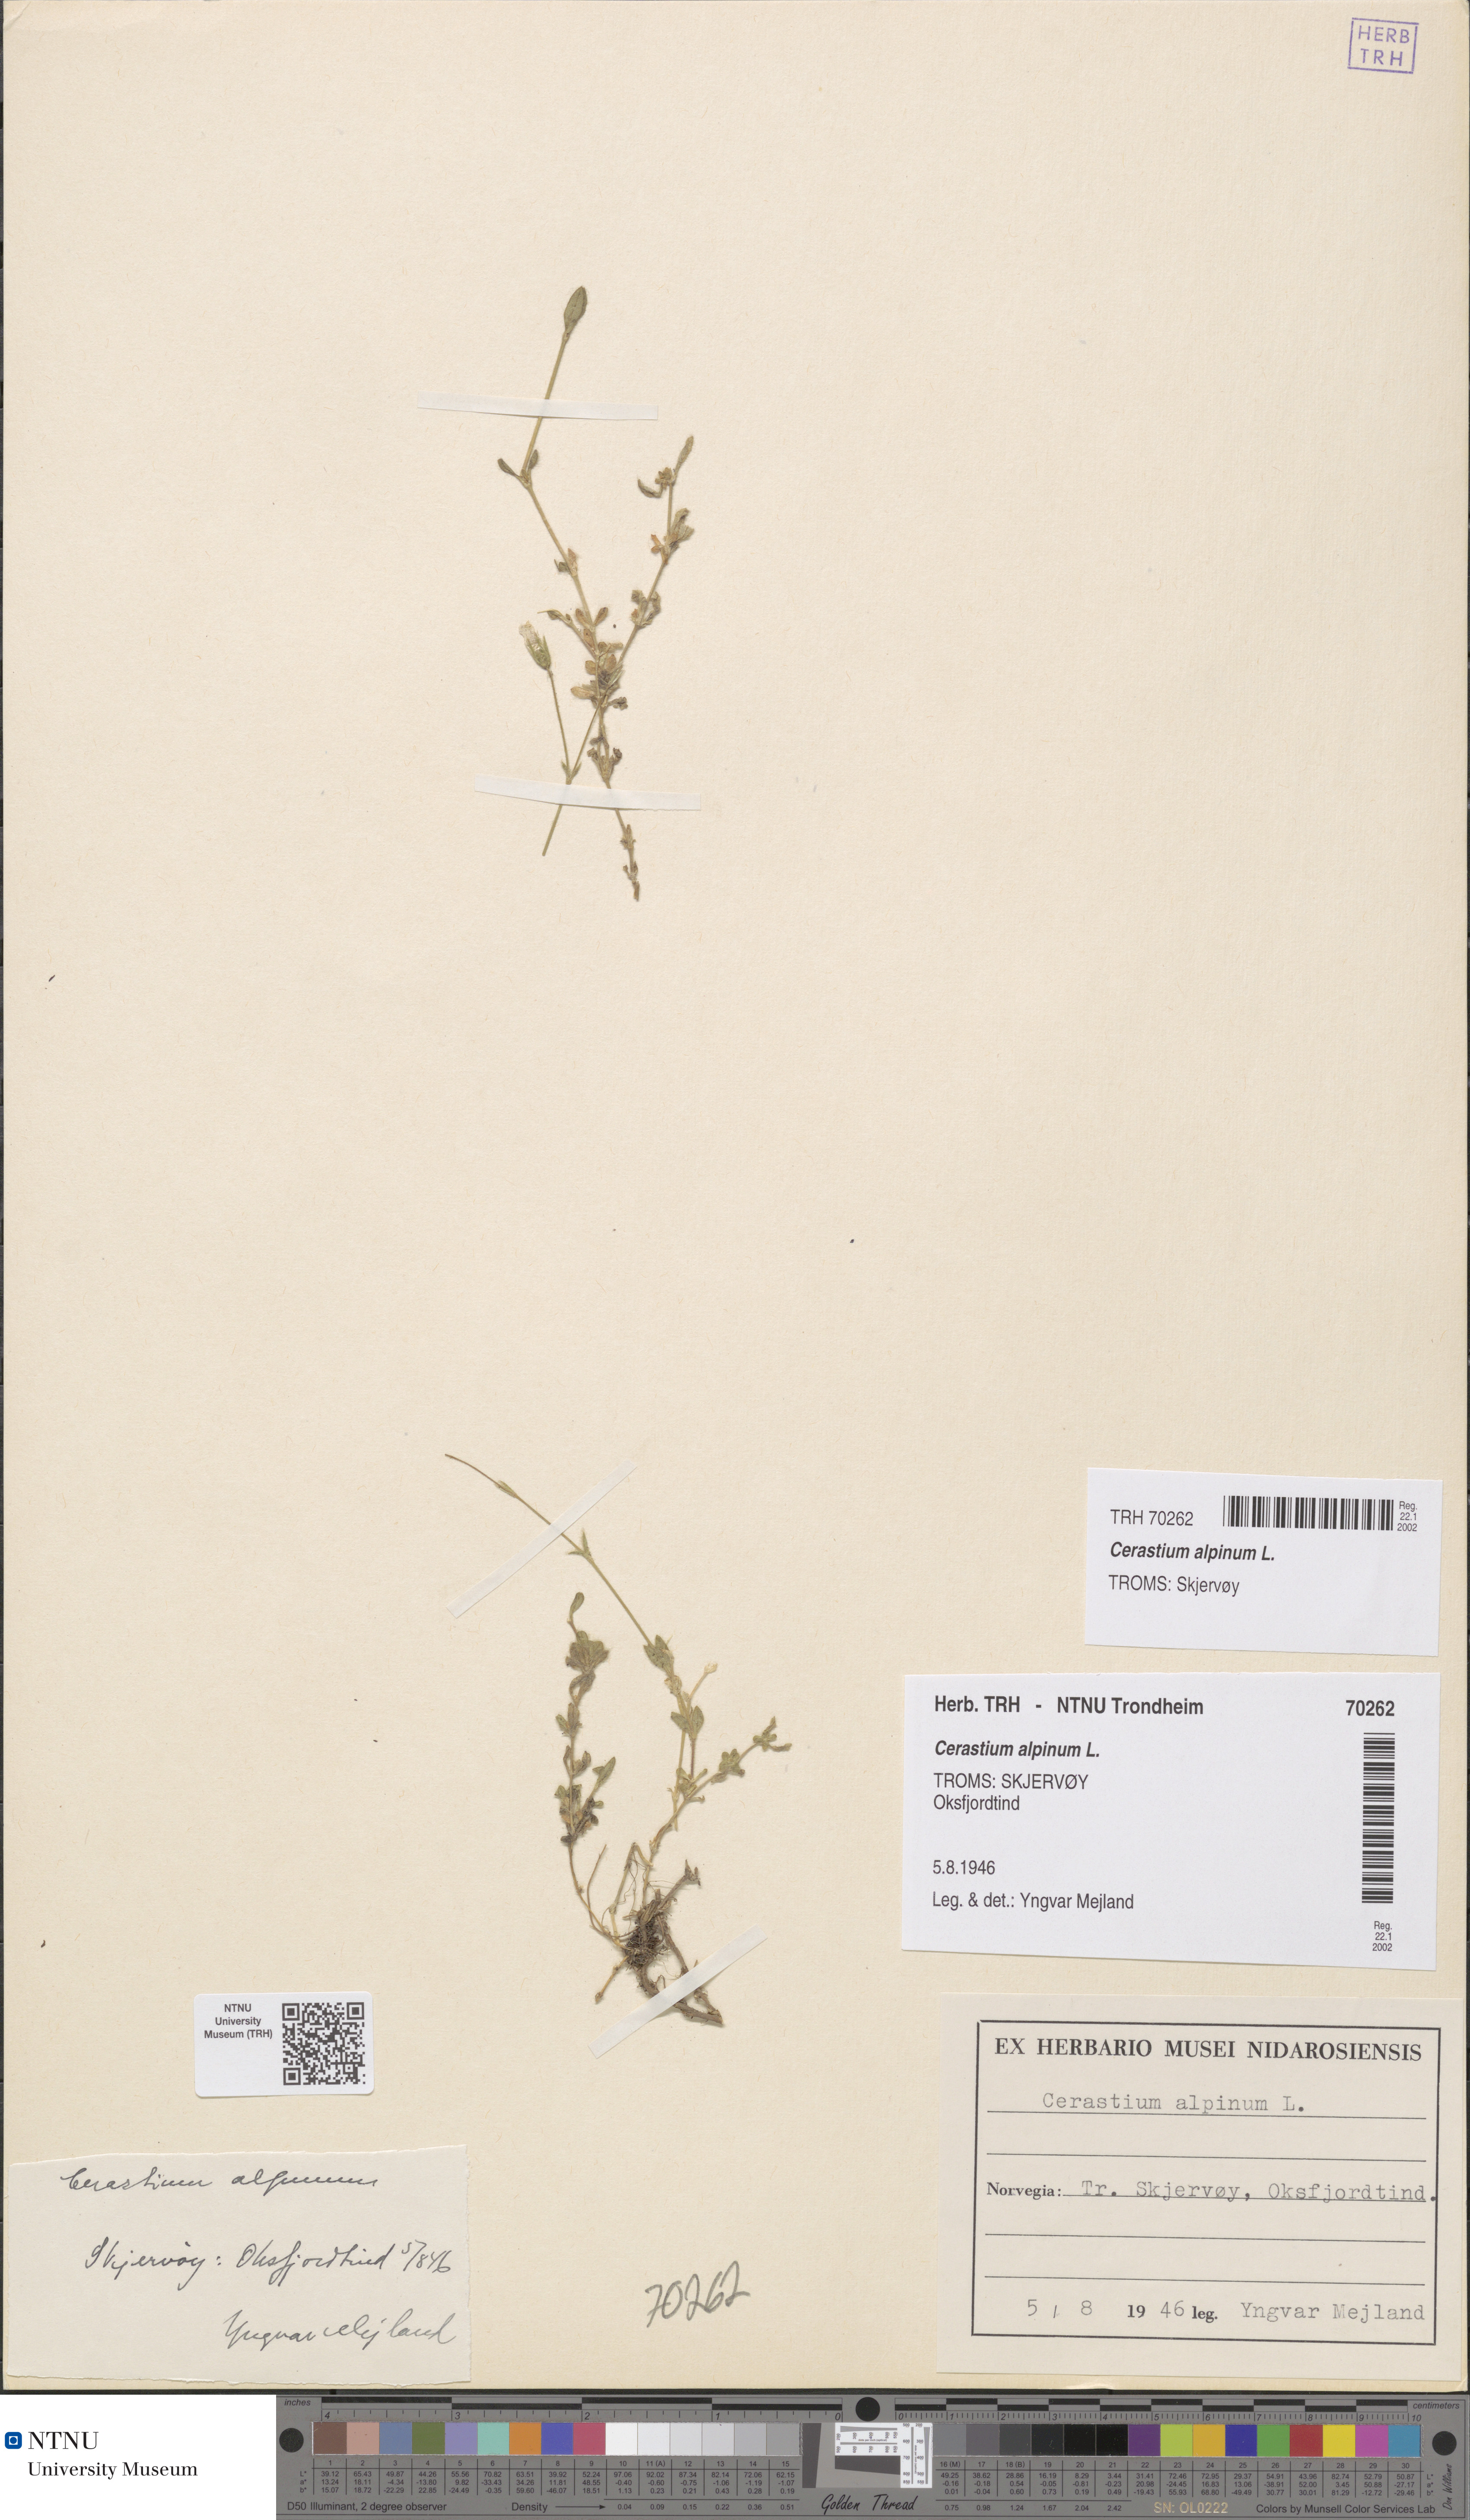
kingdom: Plantae
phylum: Tracheophyta
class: Magnoliopsida
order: Caryophyllales
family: Caryophyllaceae
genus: Cerastium
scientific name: Cerastium alpinum
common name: Alpine mouse-ear
